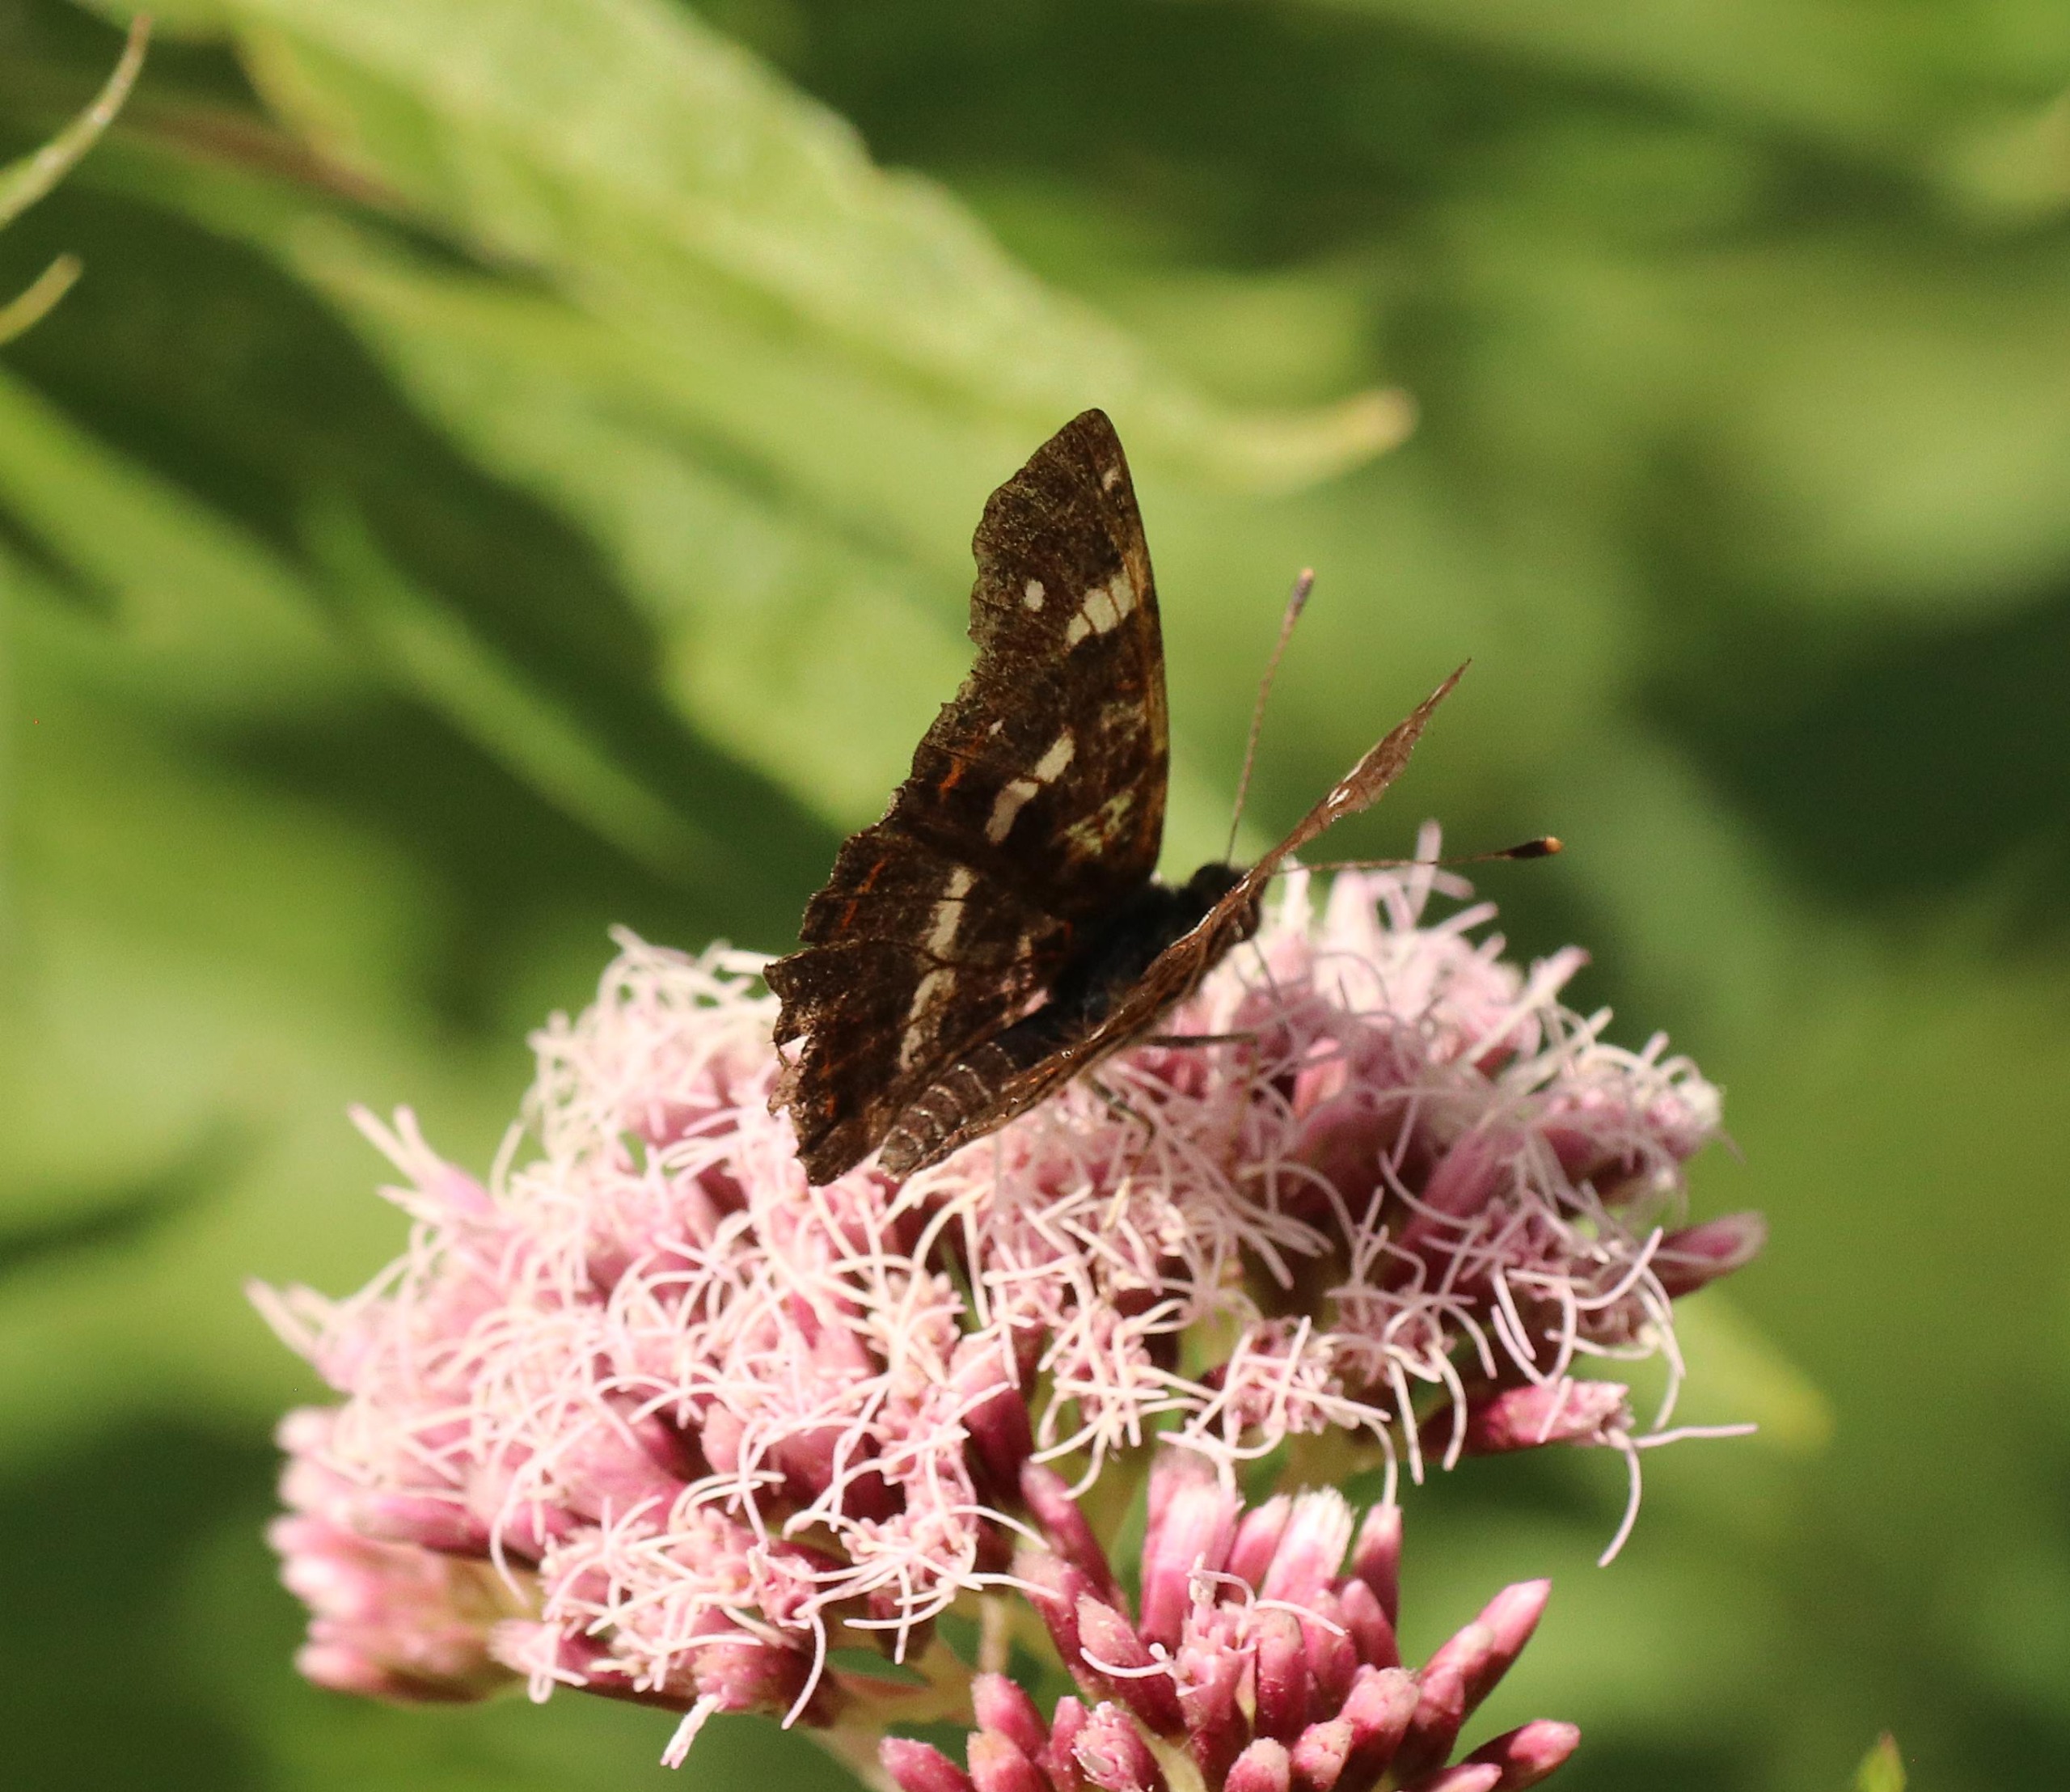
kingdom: Animalia
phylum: Arthropoda
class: Insecta
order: Lepidoptera
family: Nymphalidae
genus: Araschnia
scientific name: Araschnia levana
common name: Nældesommerfugl
